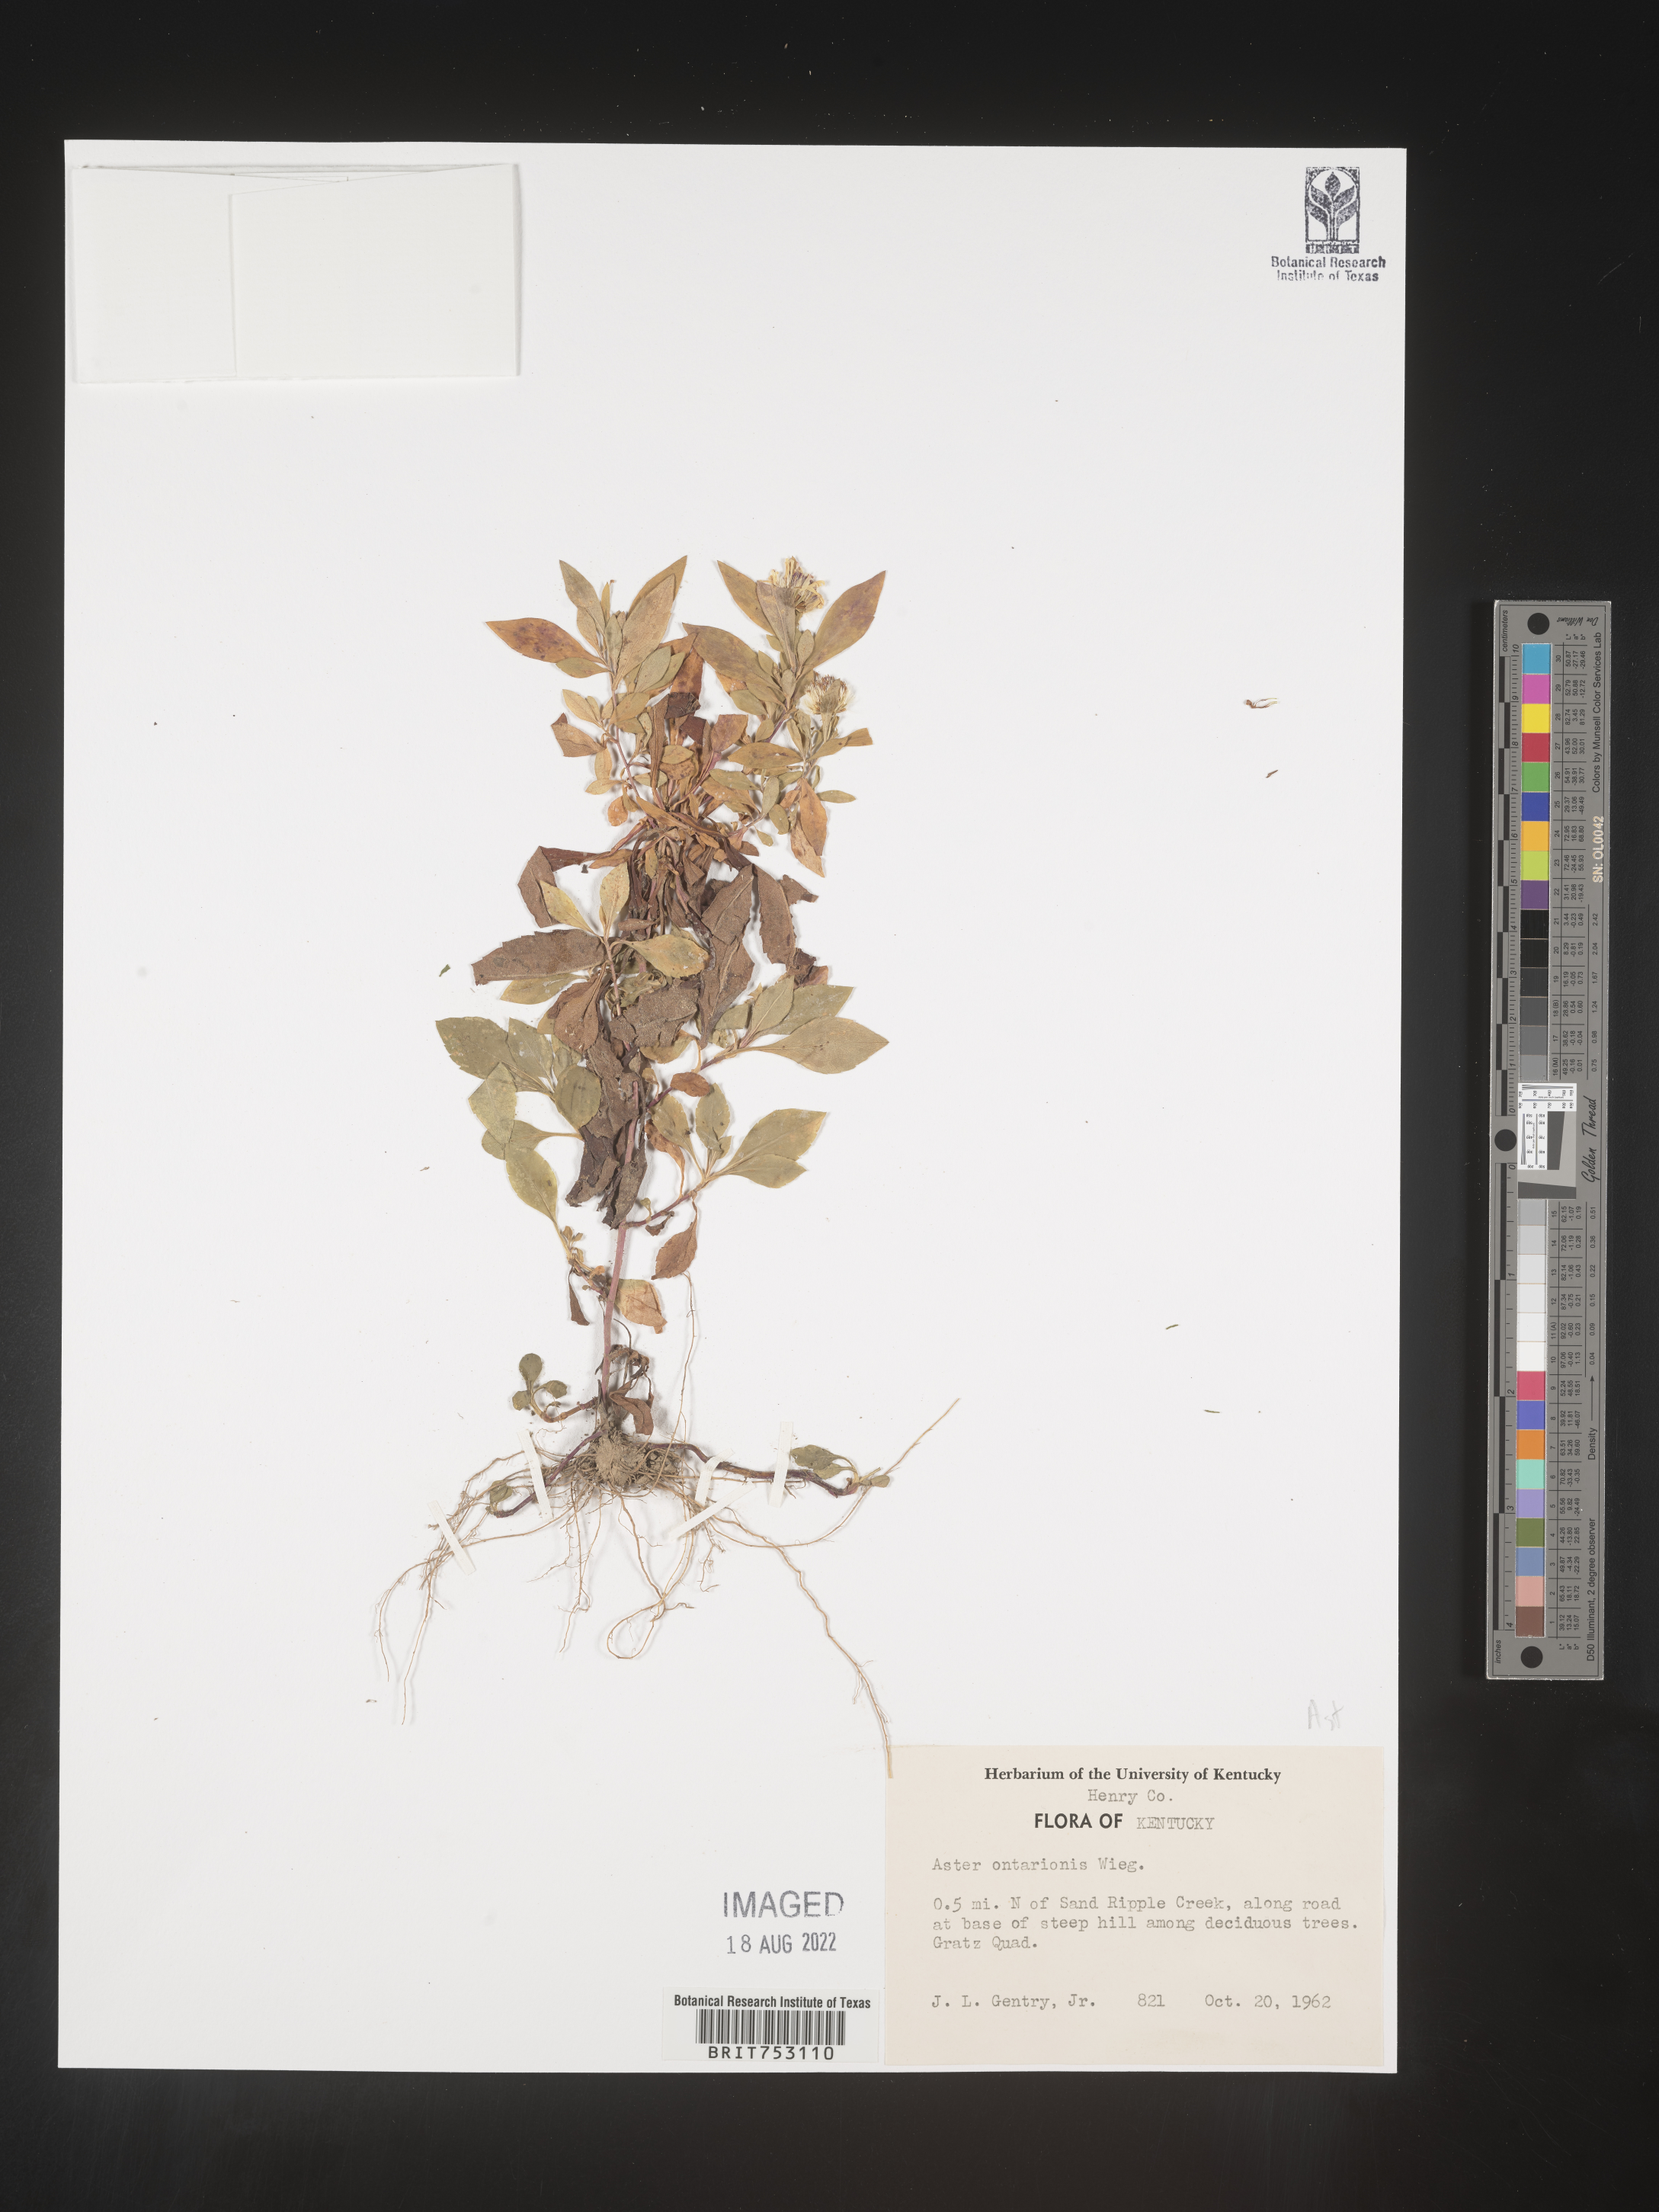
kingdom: Plantae
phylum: Tracheophyta
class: Magnoliopsida
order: Asterales
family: Asteraceae
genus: Symphyotrichum
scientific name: Symphyotrichum ontarionis
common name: Bottomland aster
